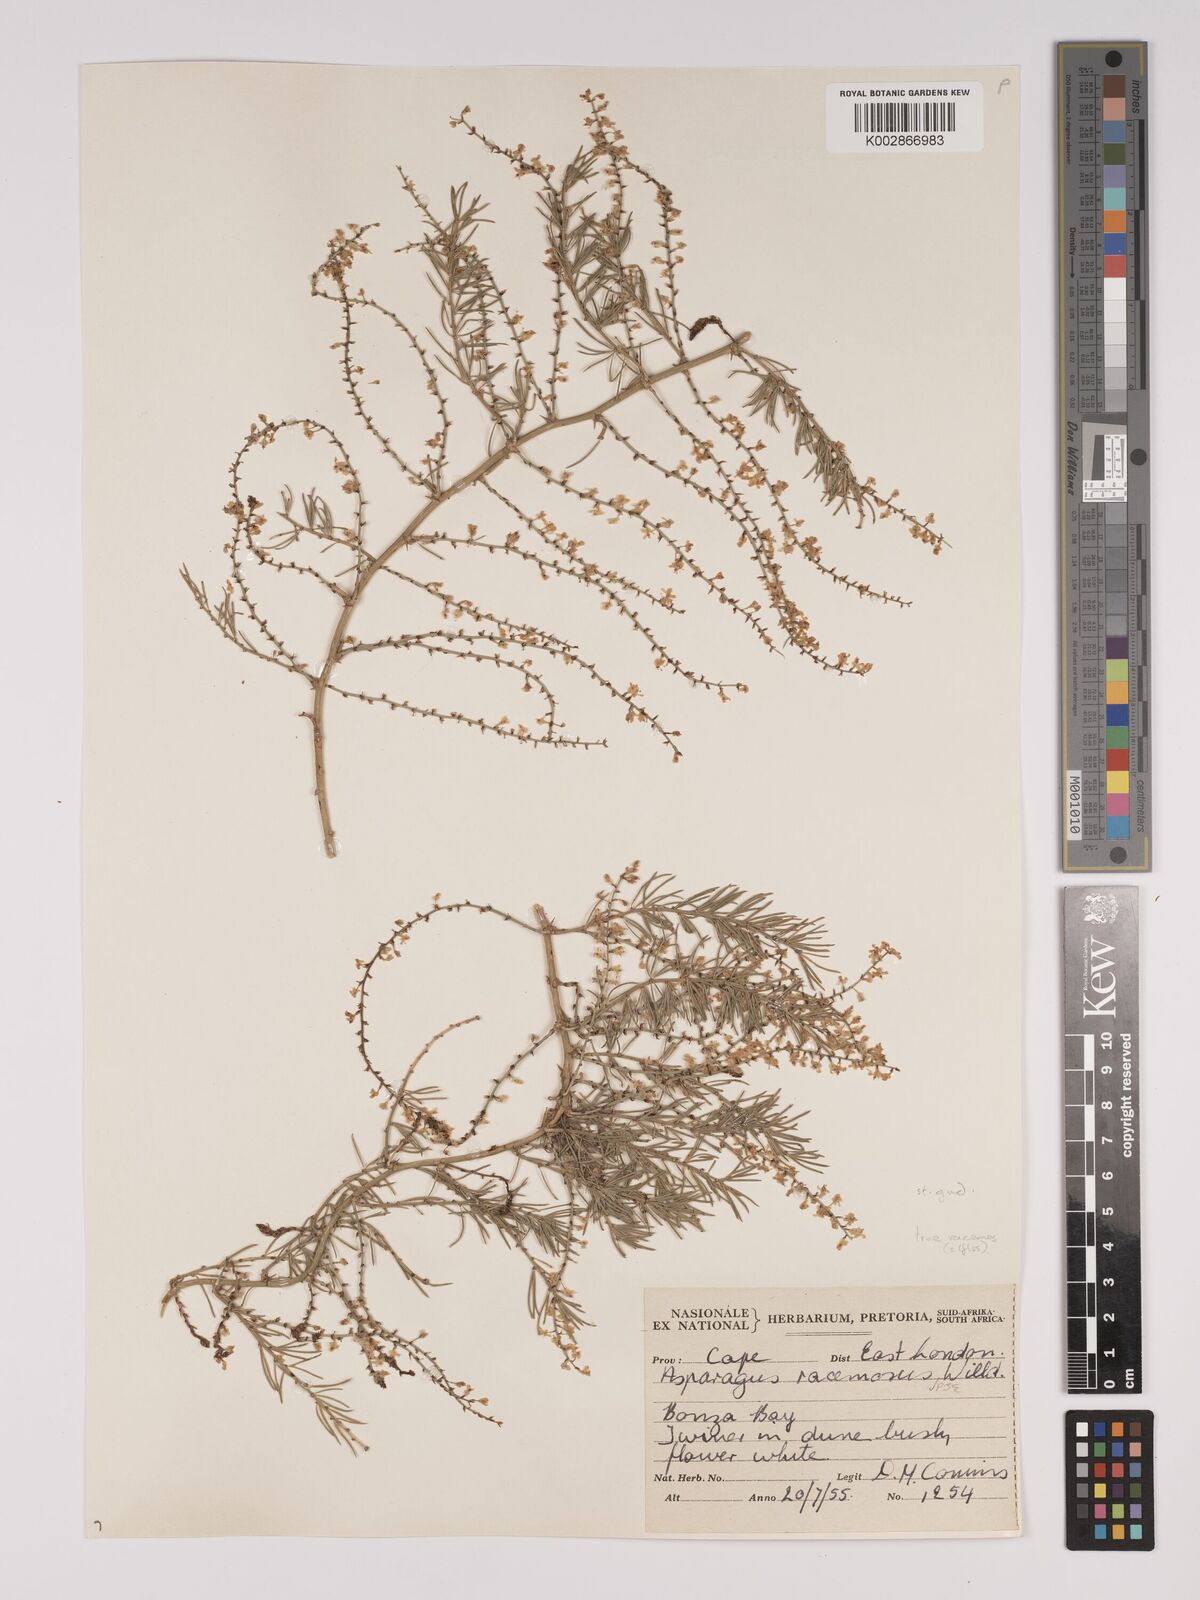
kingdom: Plantae
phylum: Tracheophyta
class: Liliopsida
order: Asparagales
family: Asparagaceae
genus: Asparagus
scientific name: Asparagus racemosus
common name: Asparagus-fern
